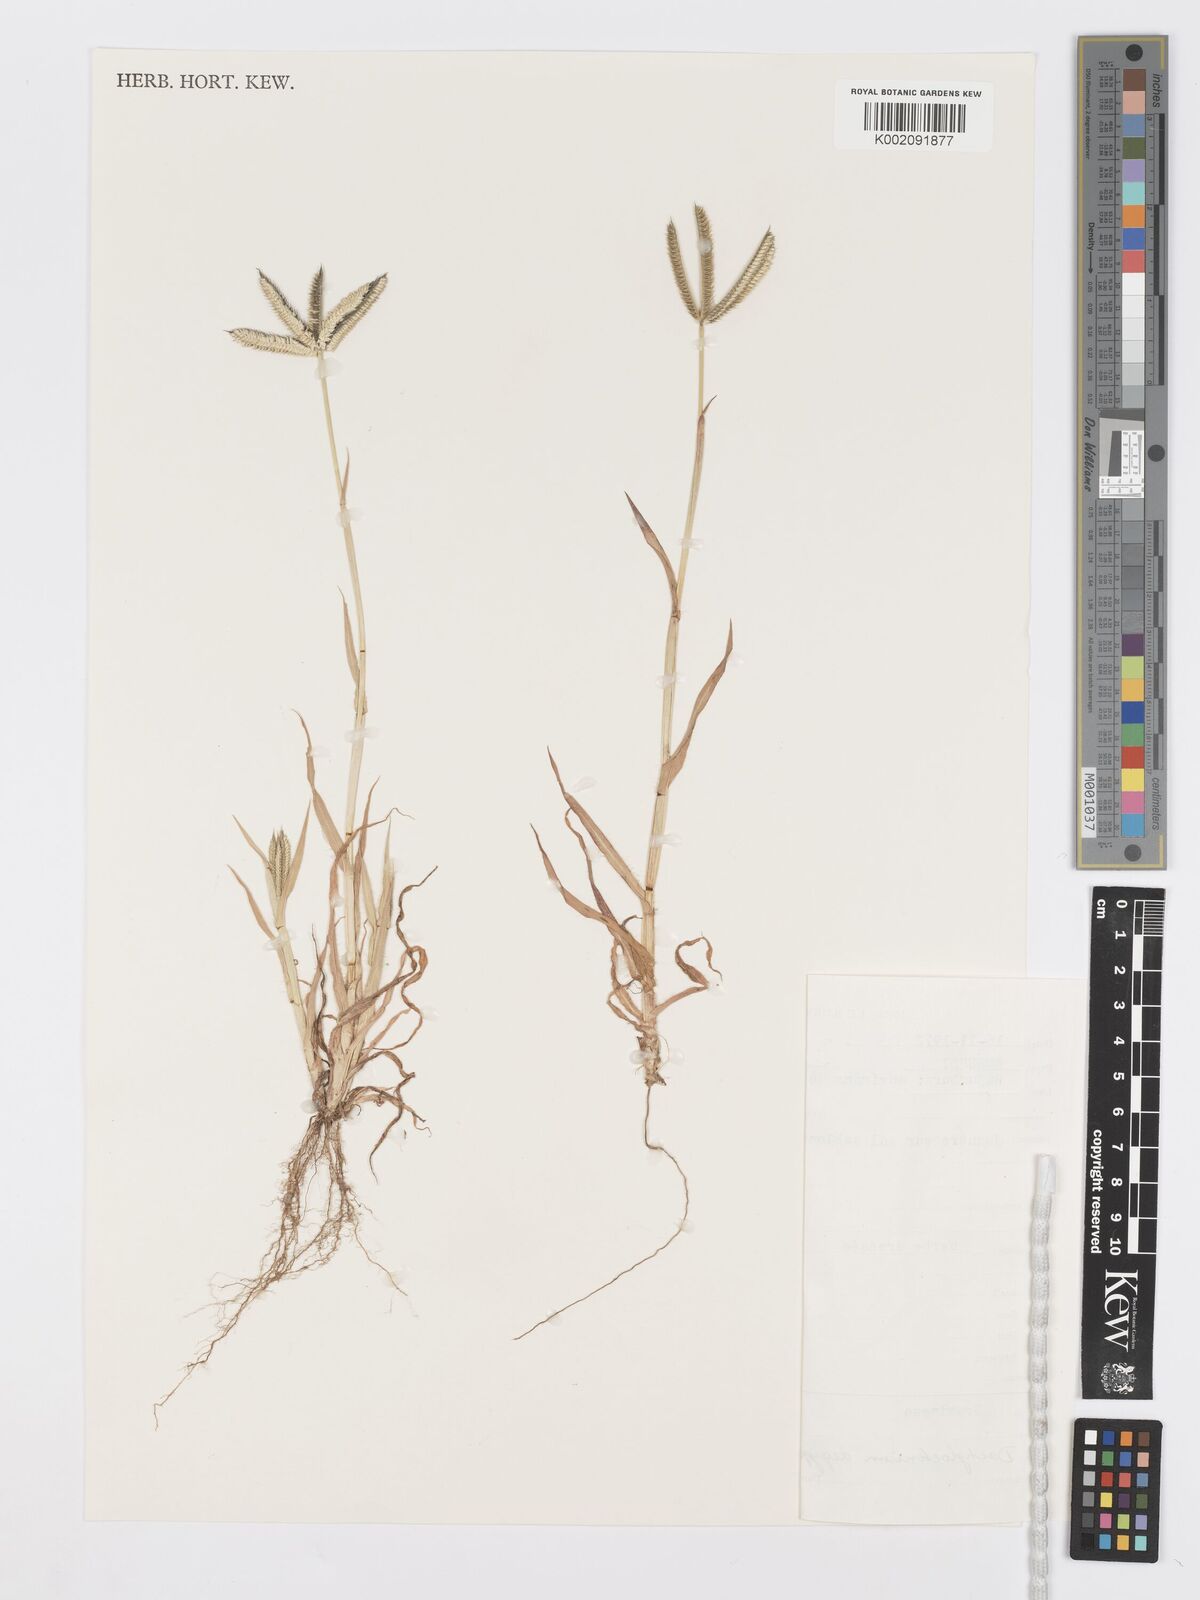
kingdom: Plantae
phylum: Tracheophyta
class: Liliopsida
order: Poales
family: Poaceae
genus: Dactyloctenium
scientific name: Dactyloctenium aegyptium
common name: Egyptian grass
